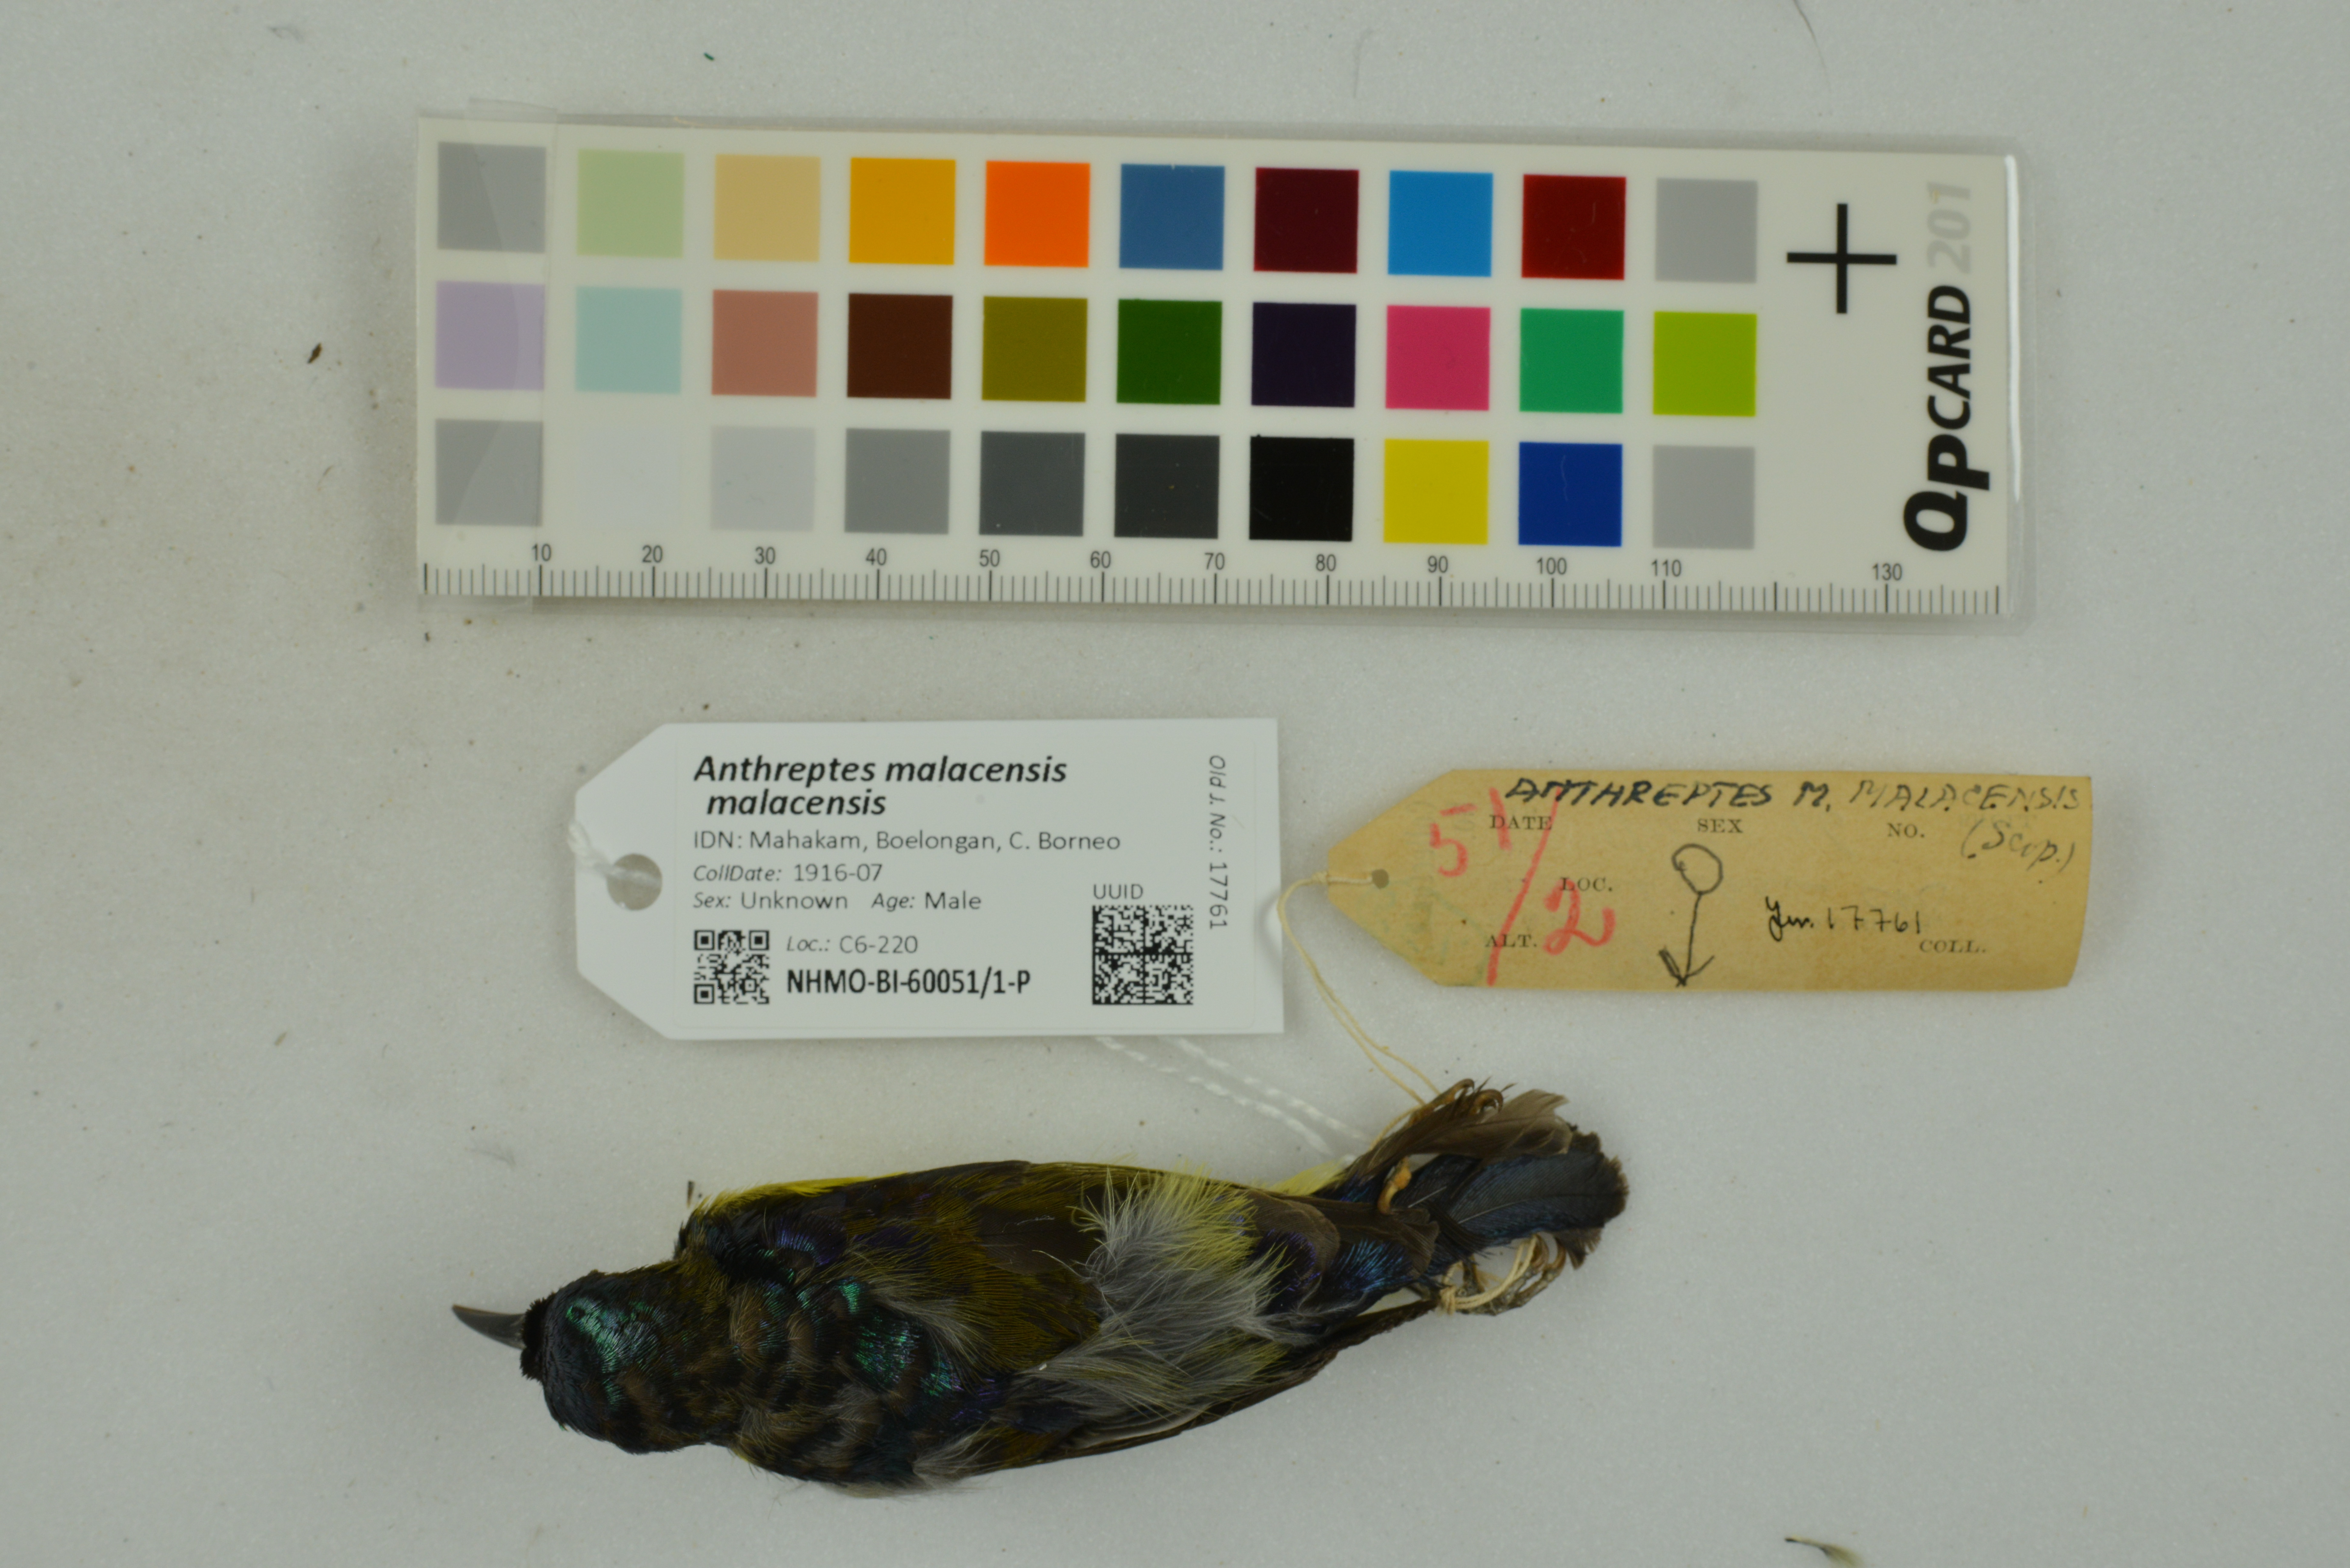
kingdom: Animalia
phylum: Chordata
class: Aves
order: Passeriformes
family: Nectariniidae
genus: Anthreptes
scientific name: Anthreptes malacensis
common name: Brown-throated sunbird
